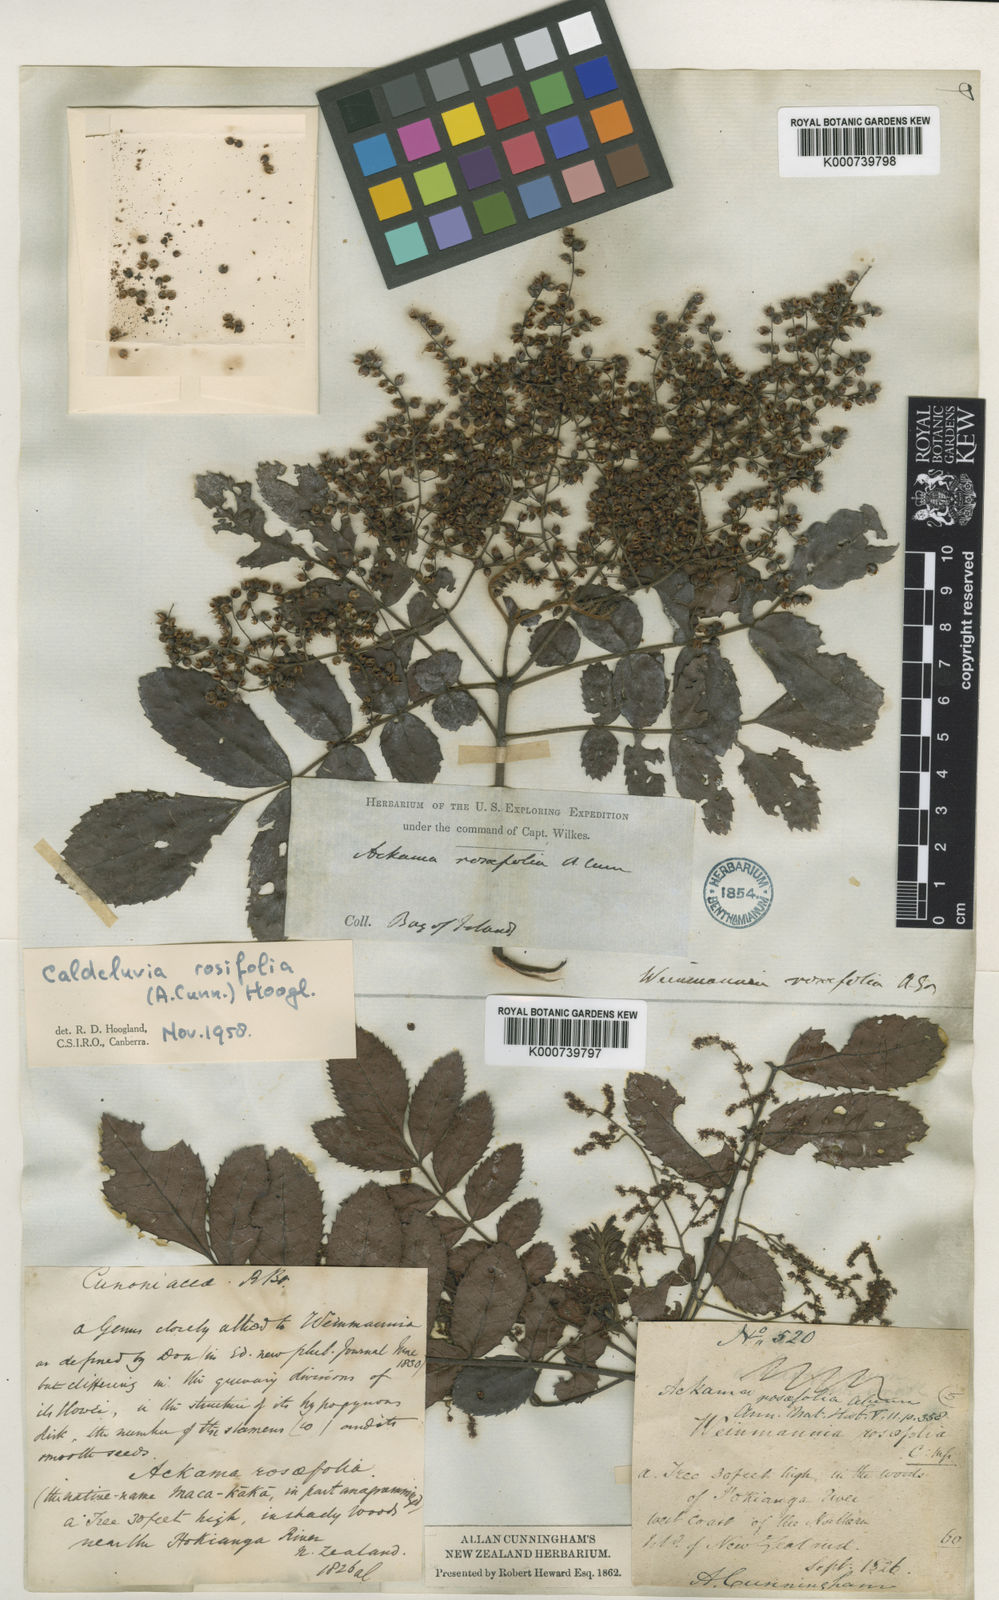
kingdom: Plantae
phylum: Tracheophyta
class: Magnoliopsida
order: Oxalidales
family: Cunoniaceae
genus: Ackama
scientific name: Ackama rosifolia
